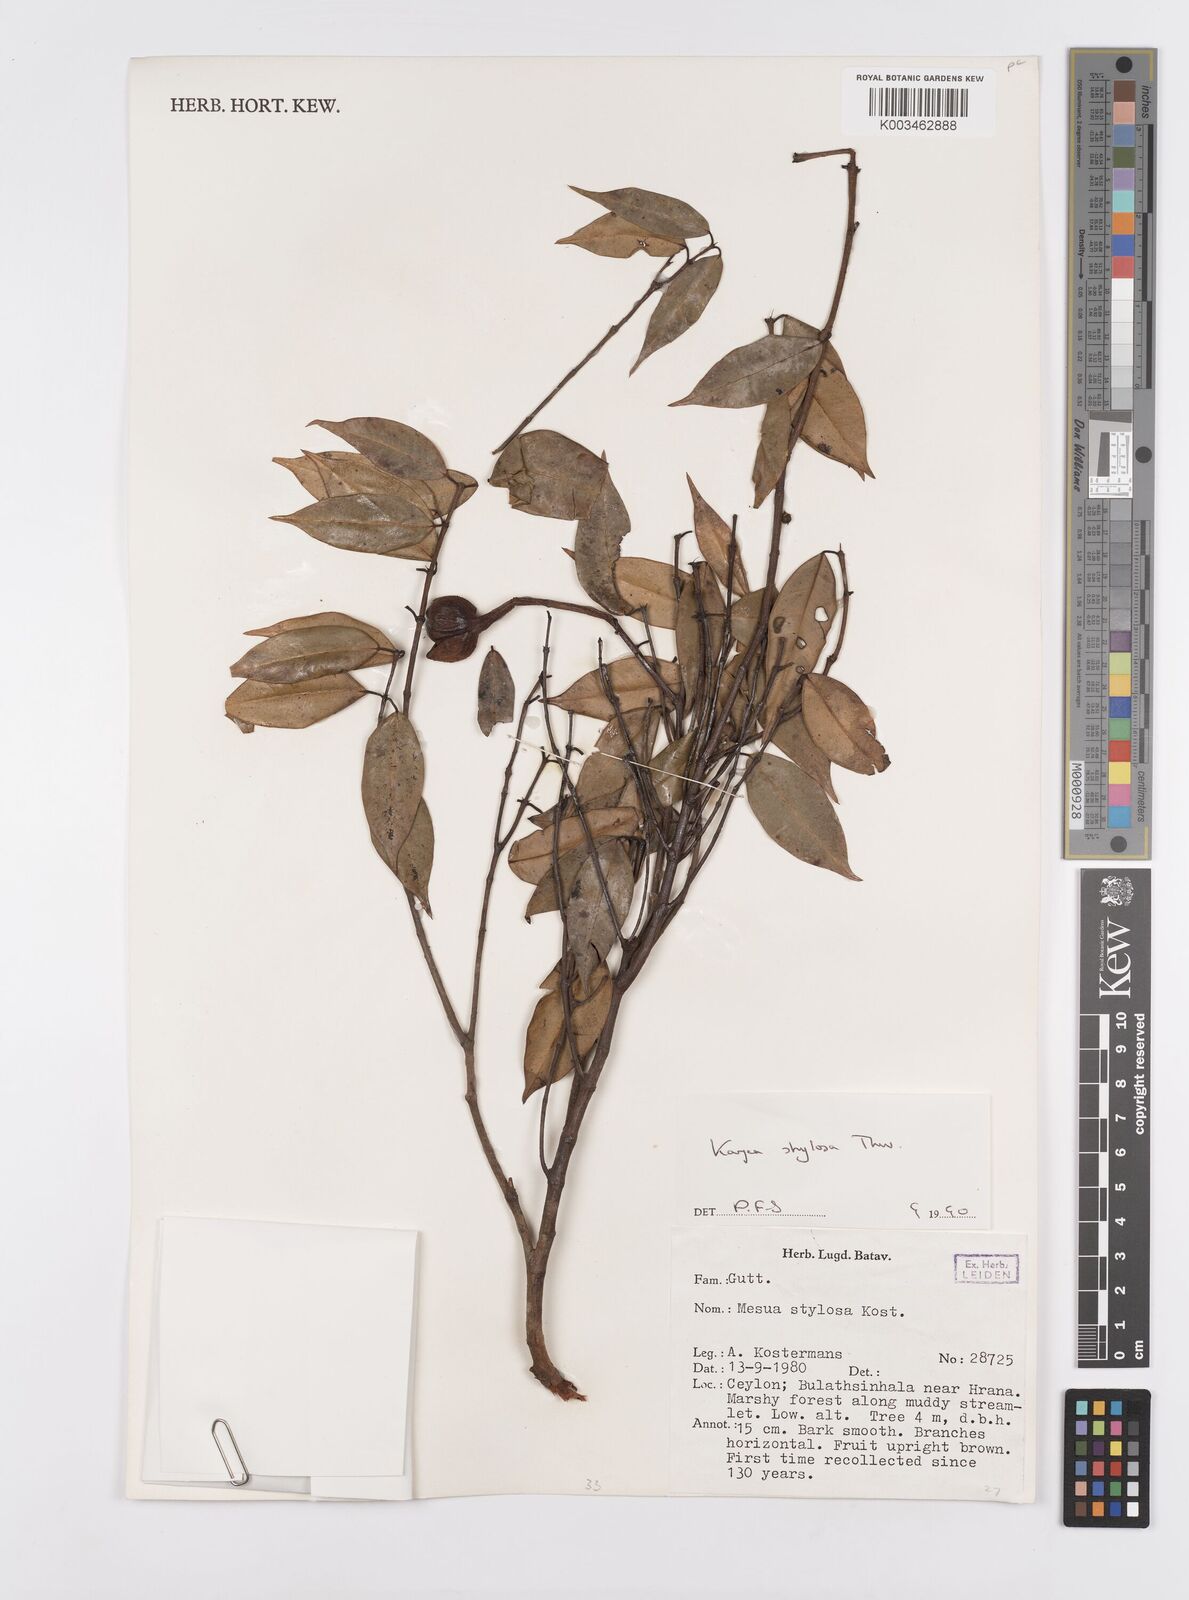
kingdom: Plantae
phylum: Tracheophyta
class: Magnoliopsida
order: Malpighiales
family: Calophyllaceae
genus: Kayea
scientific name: Kayea stylosa
